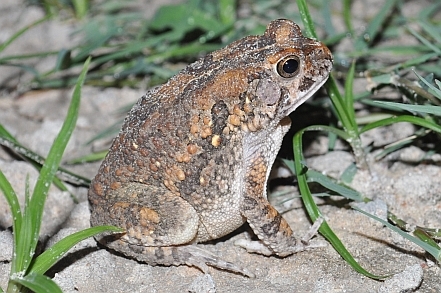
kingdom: Animalia
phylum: Chordata
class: Amphibia
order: Anura
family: Bufonidae
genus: Sclerophrys
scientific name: Sclerophrys pusilla
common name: Merten's striped toad
